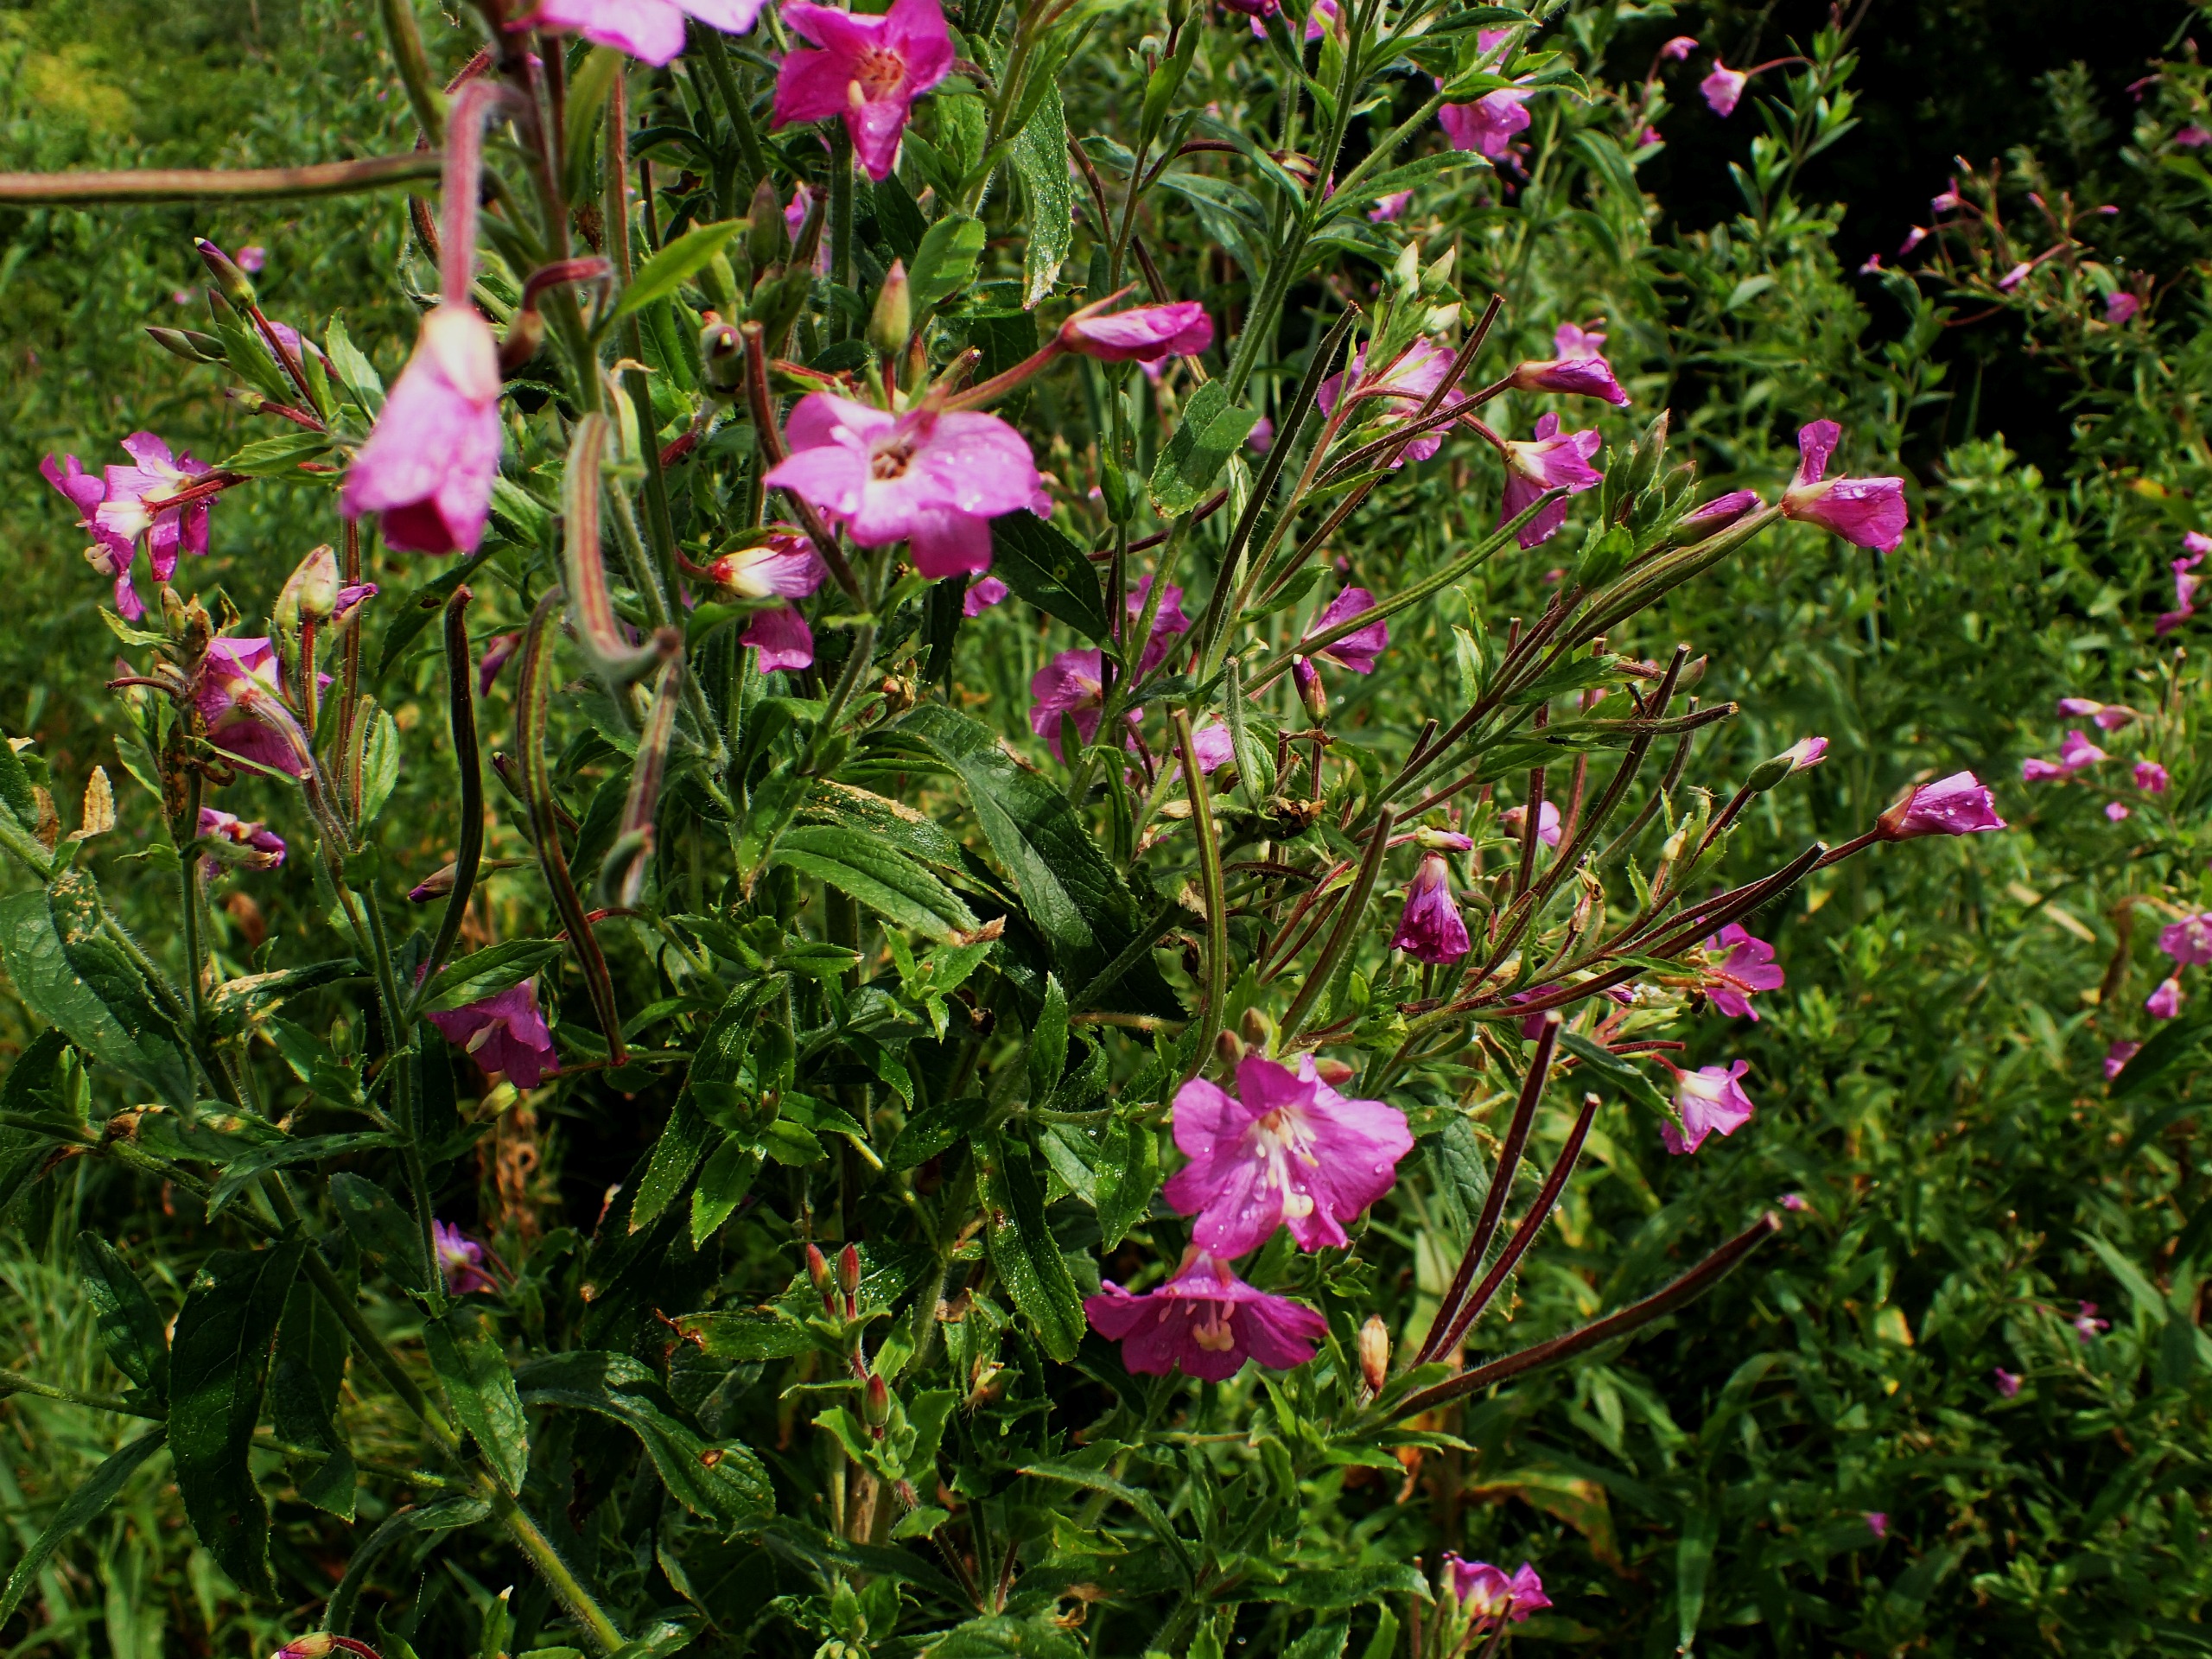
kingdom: Plantae
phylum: Tracheophyta
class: Magnoliopsida
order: Myrtales
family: Onagraceae
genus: Epilobium
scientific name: Epilobium hirsutum
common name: Lådden dueurt
